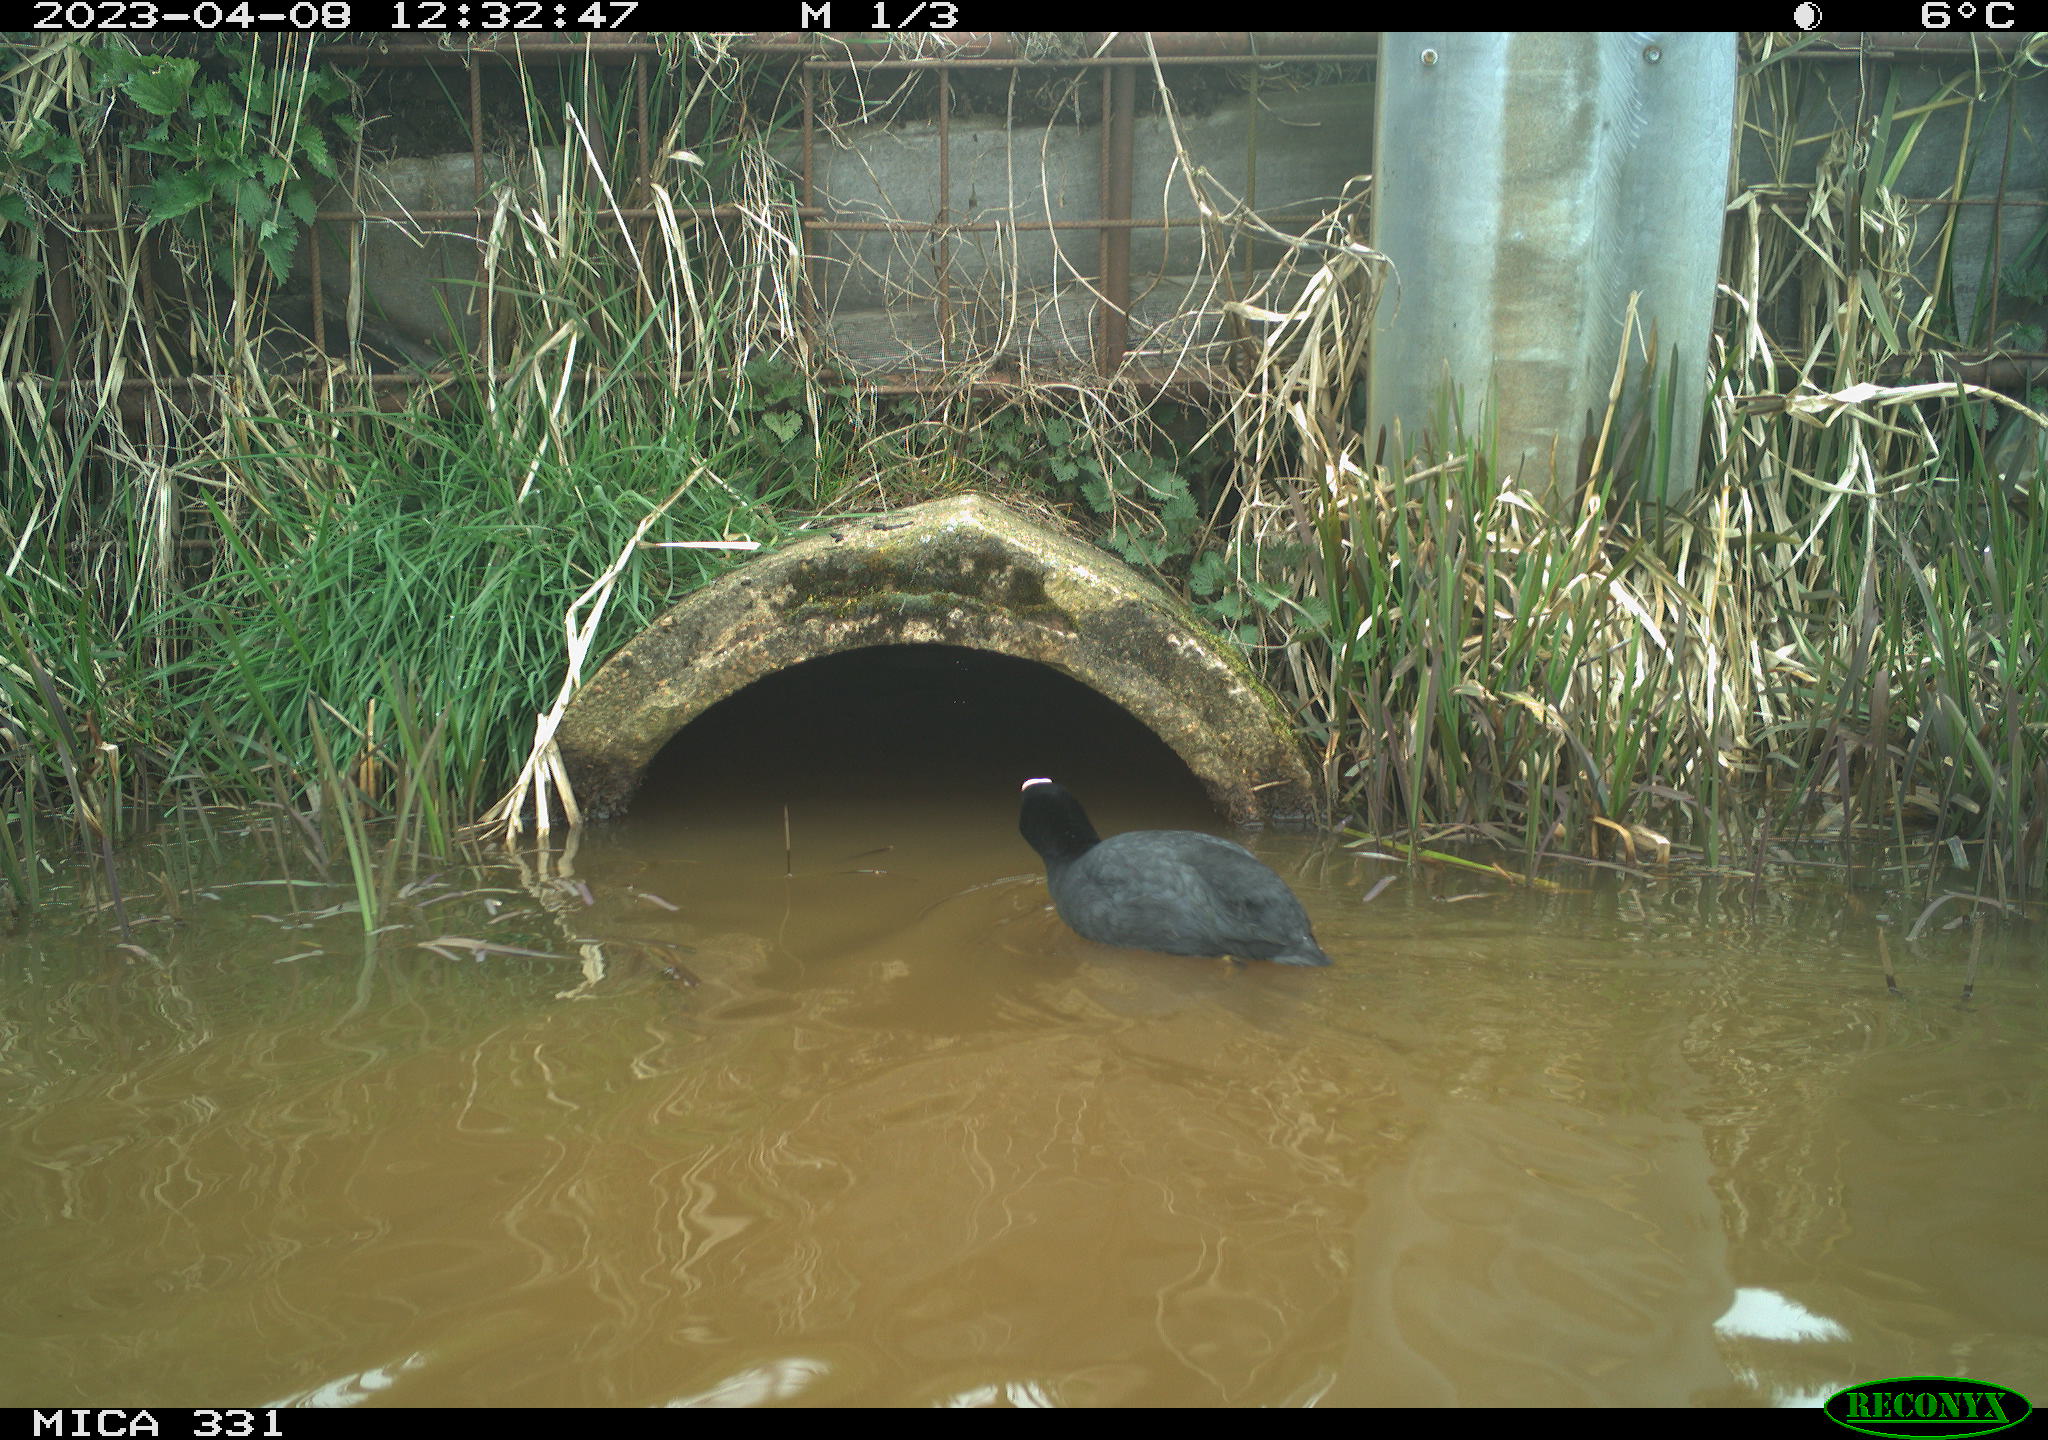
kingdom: Animalia
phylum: Chordata
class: Aves
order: Gruiformes
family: Rallidae
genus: Fulica
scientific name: Fulica atra
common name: Eurasian coot
